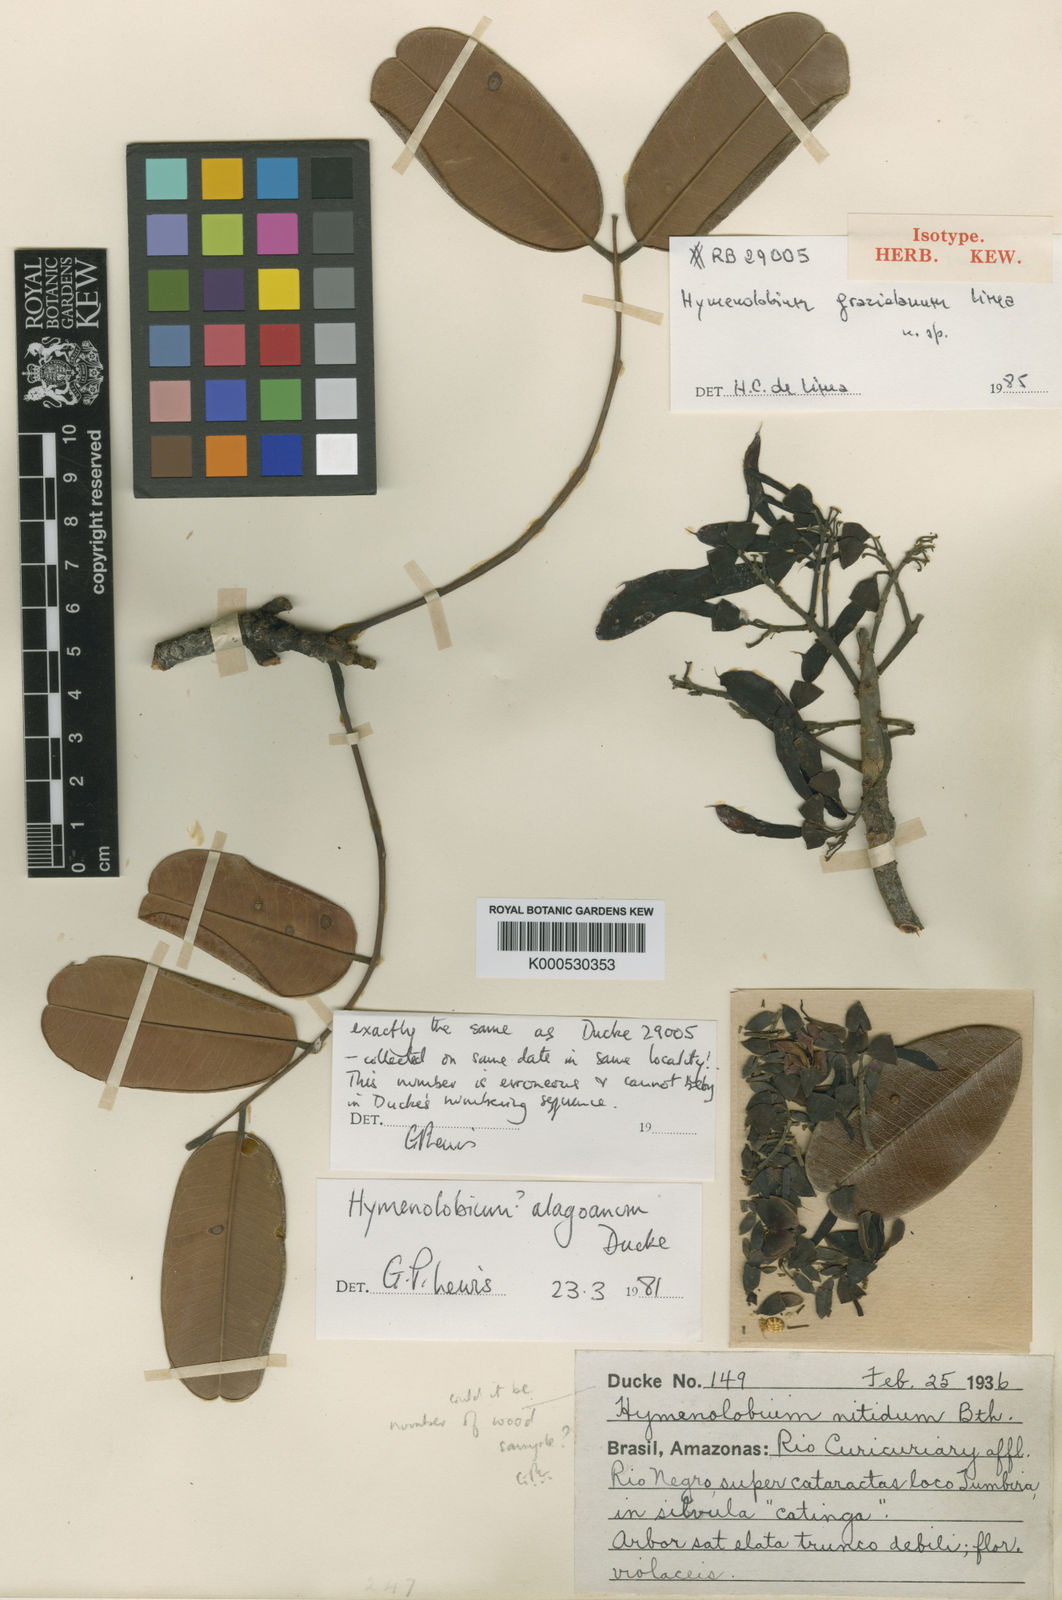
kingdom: Plantae
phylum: Tracheophyta
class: Magnoliopsida
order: Fabales
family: Fabaceae
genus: Hymenolobium
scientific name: Hymenolobium grazielanum
